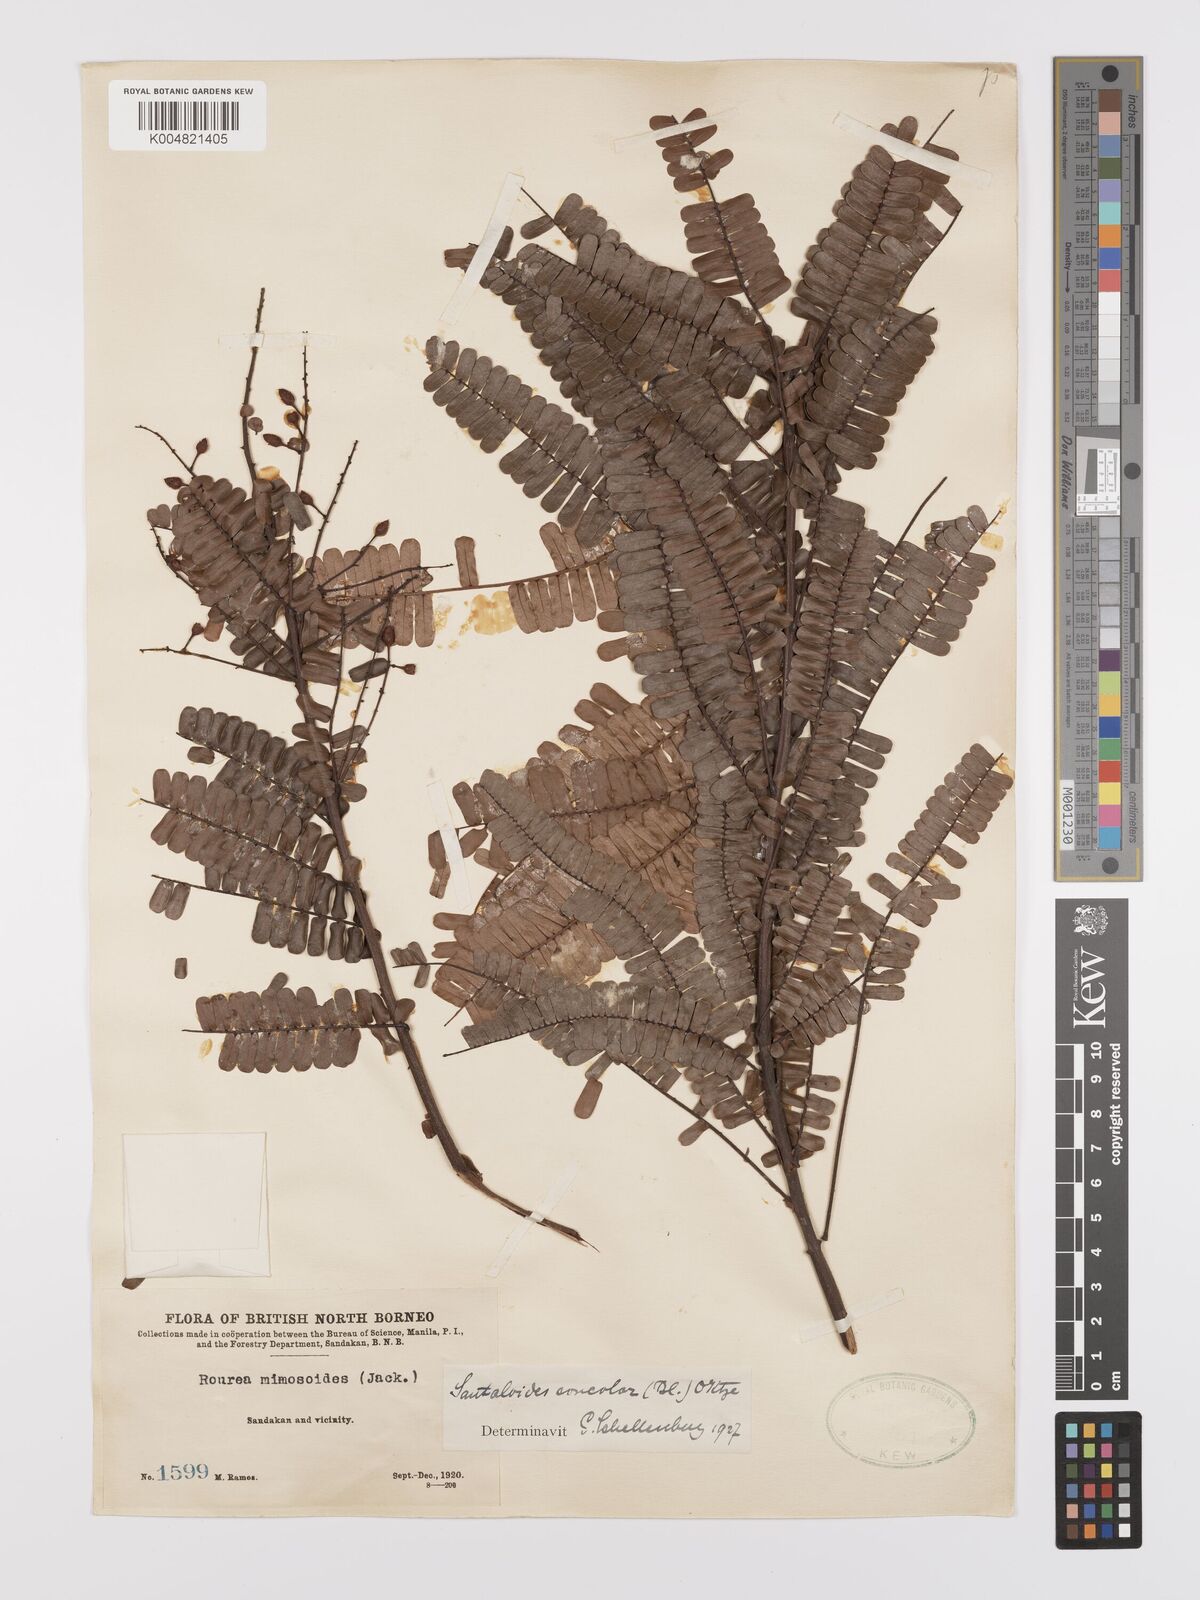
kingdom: Plantae
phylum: Tracheophyta
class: Magnoliopsida
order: Oxalidales
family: Connaraceae
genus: Rourea
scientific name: Rourea mimosoides
